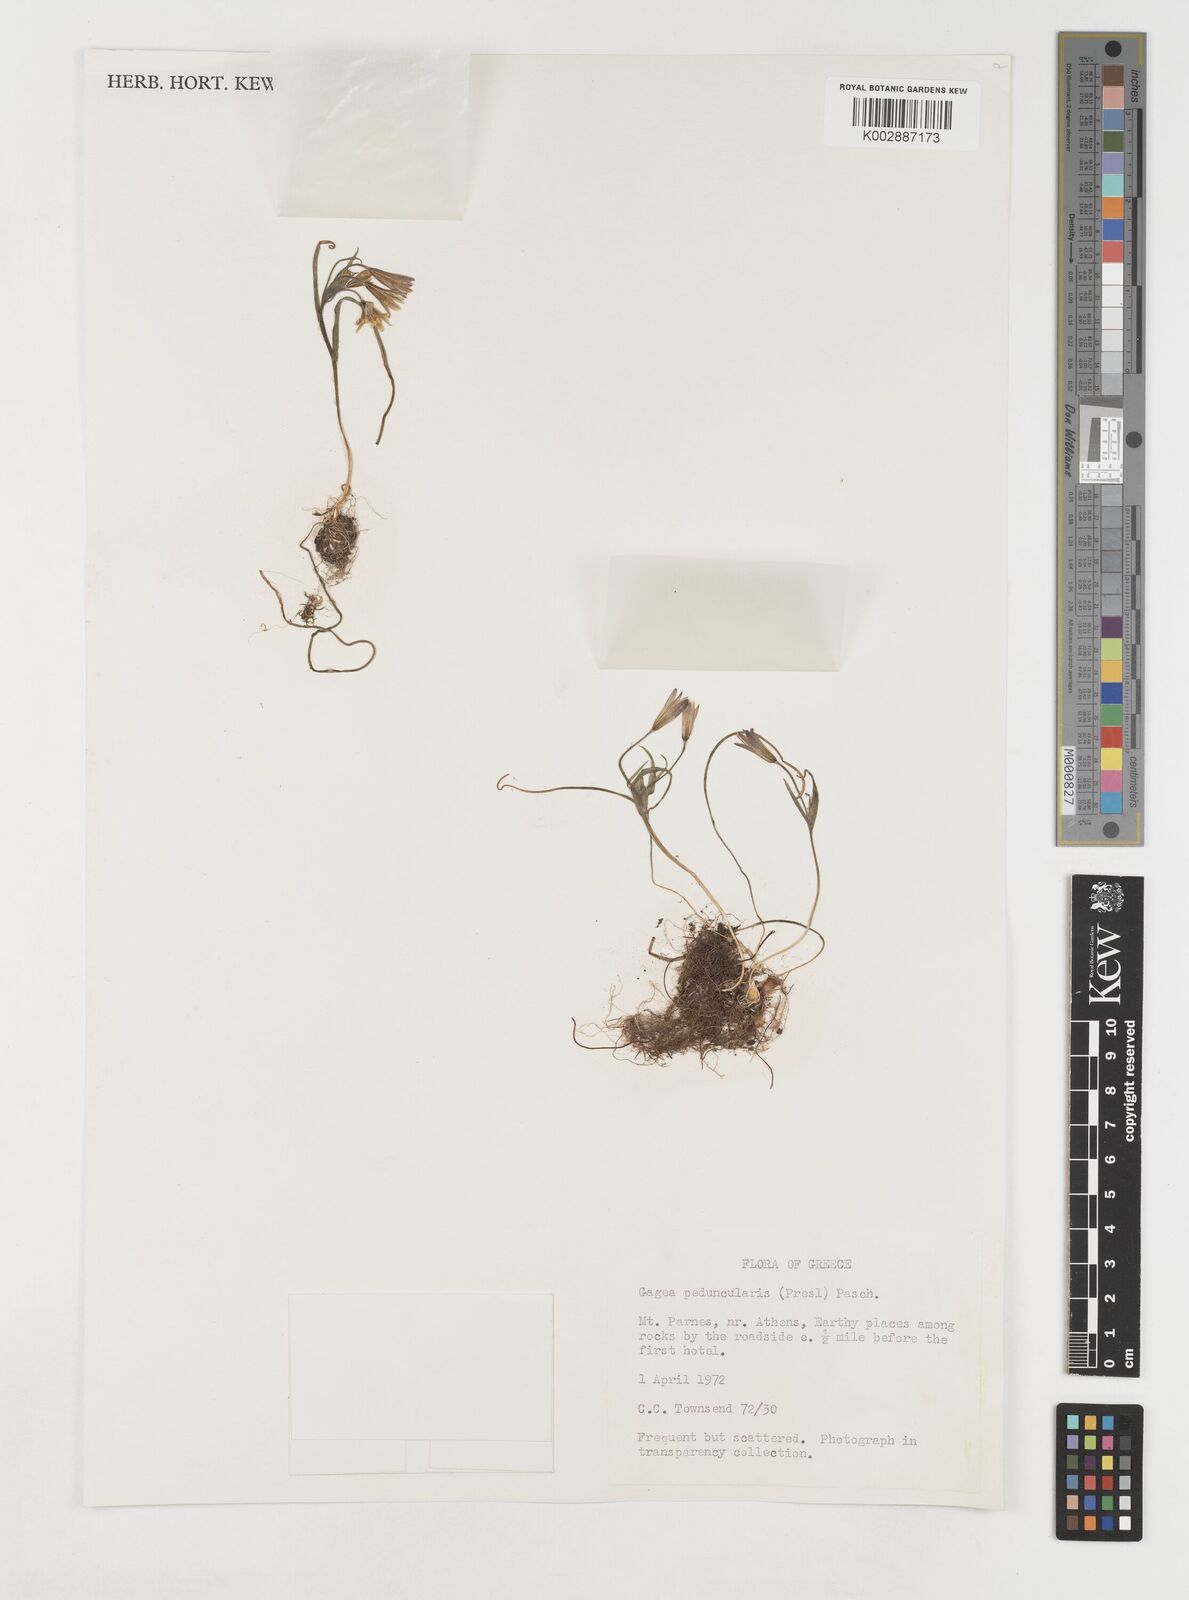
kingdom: Plantae
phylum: Tracheophyta
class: Liliopsida
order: Liliales
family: Liliaceae
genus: Gagea
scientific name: Gagea peduncularis
